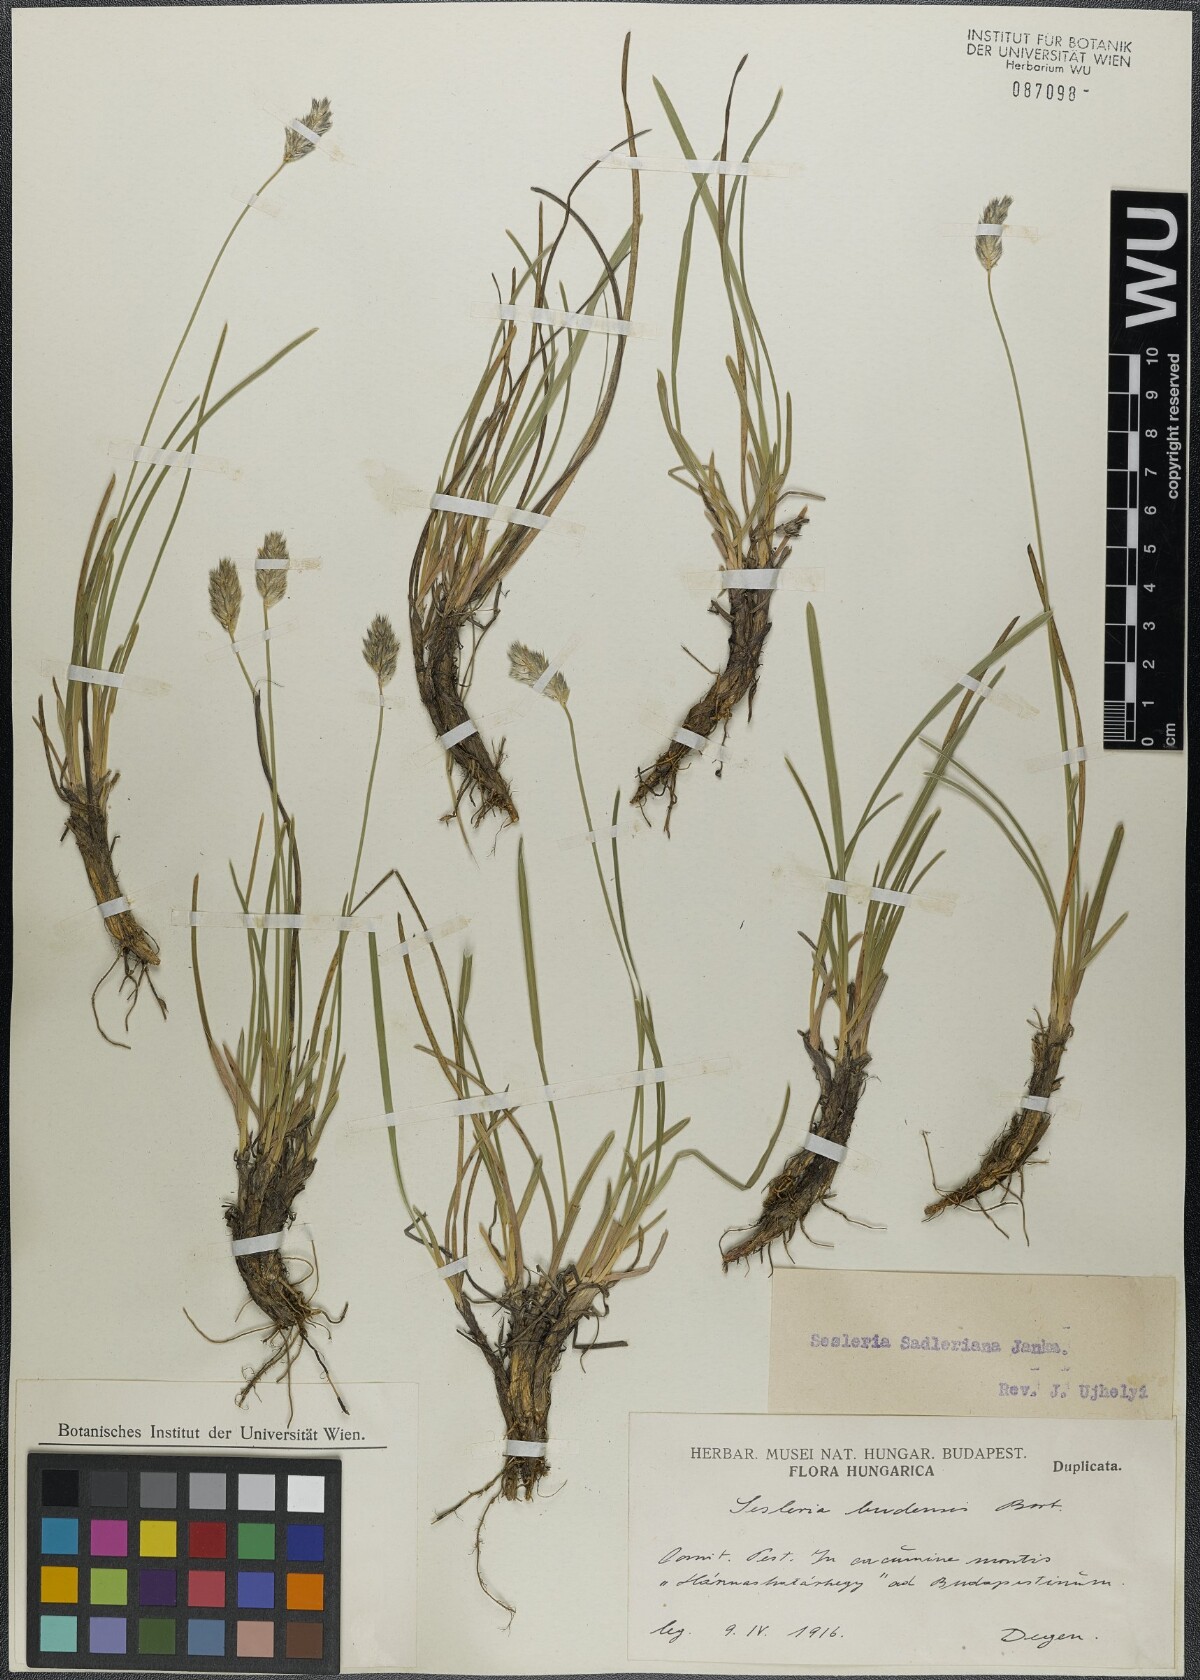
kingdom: Plantae
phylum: Tracheophyta
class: Liliopsida
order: Poales
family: Poaceae
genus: Sesleria
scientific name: Sesleria sadleriana
